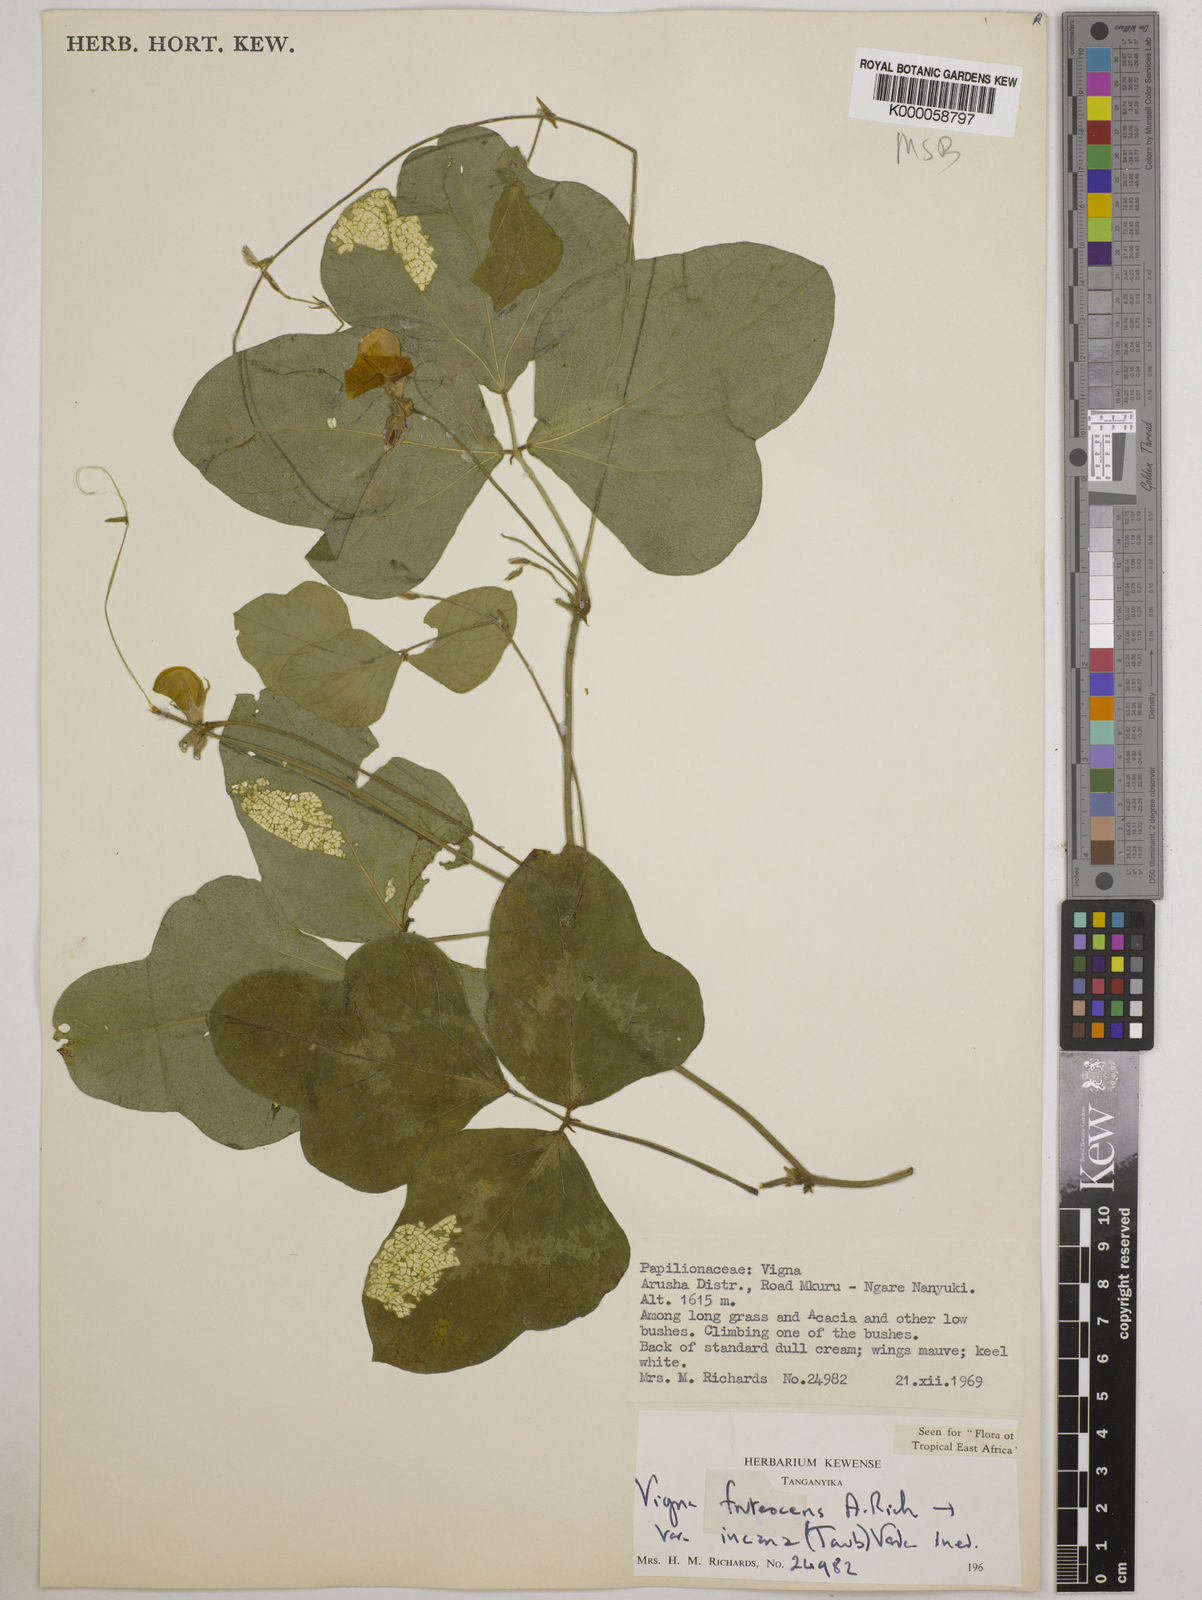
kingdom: Plantae
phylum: Tracheophyta
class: Magnoliopsida
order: Fabales
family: Fabaceae
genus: Vigna
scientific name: Vigna
